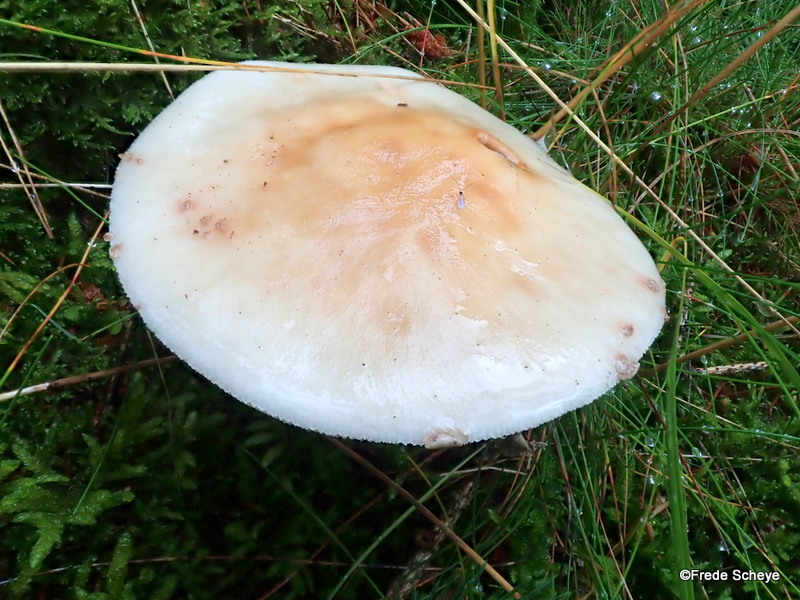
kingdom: Fungi
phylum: Basidiomycota
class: Agaricomycetes
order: Agaricales
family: Amanitaceae
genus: Amanita
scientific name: Amanita rubescens
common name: rødmende fluesvamp
